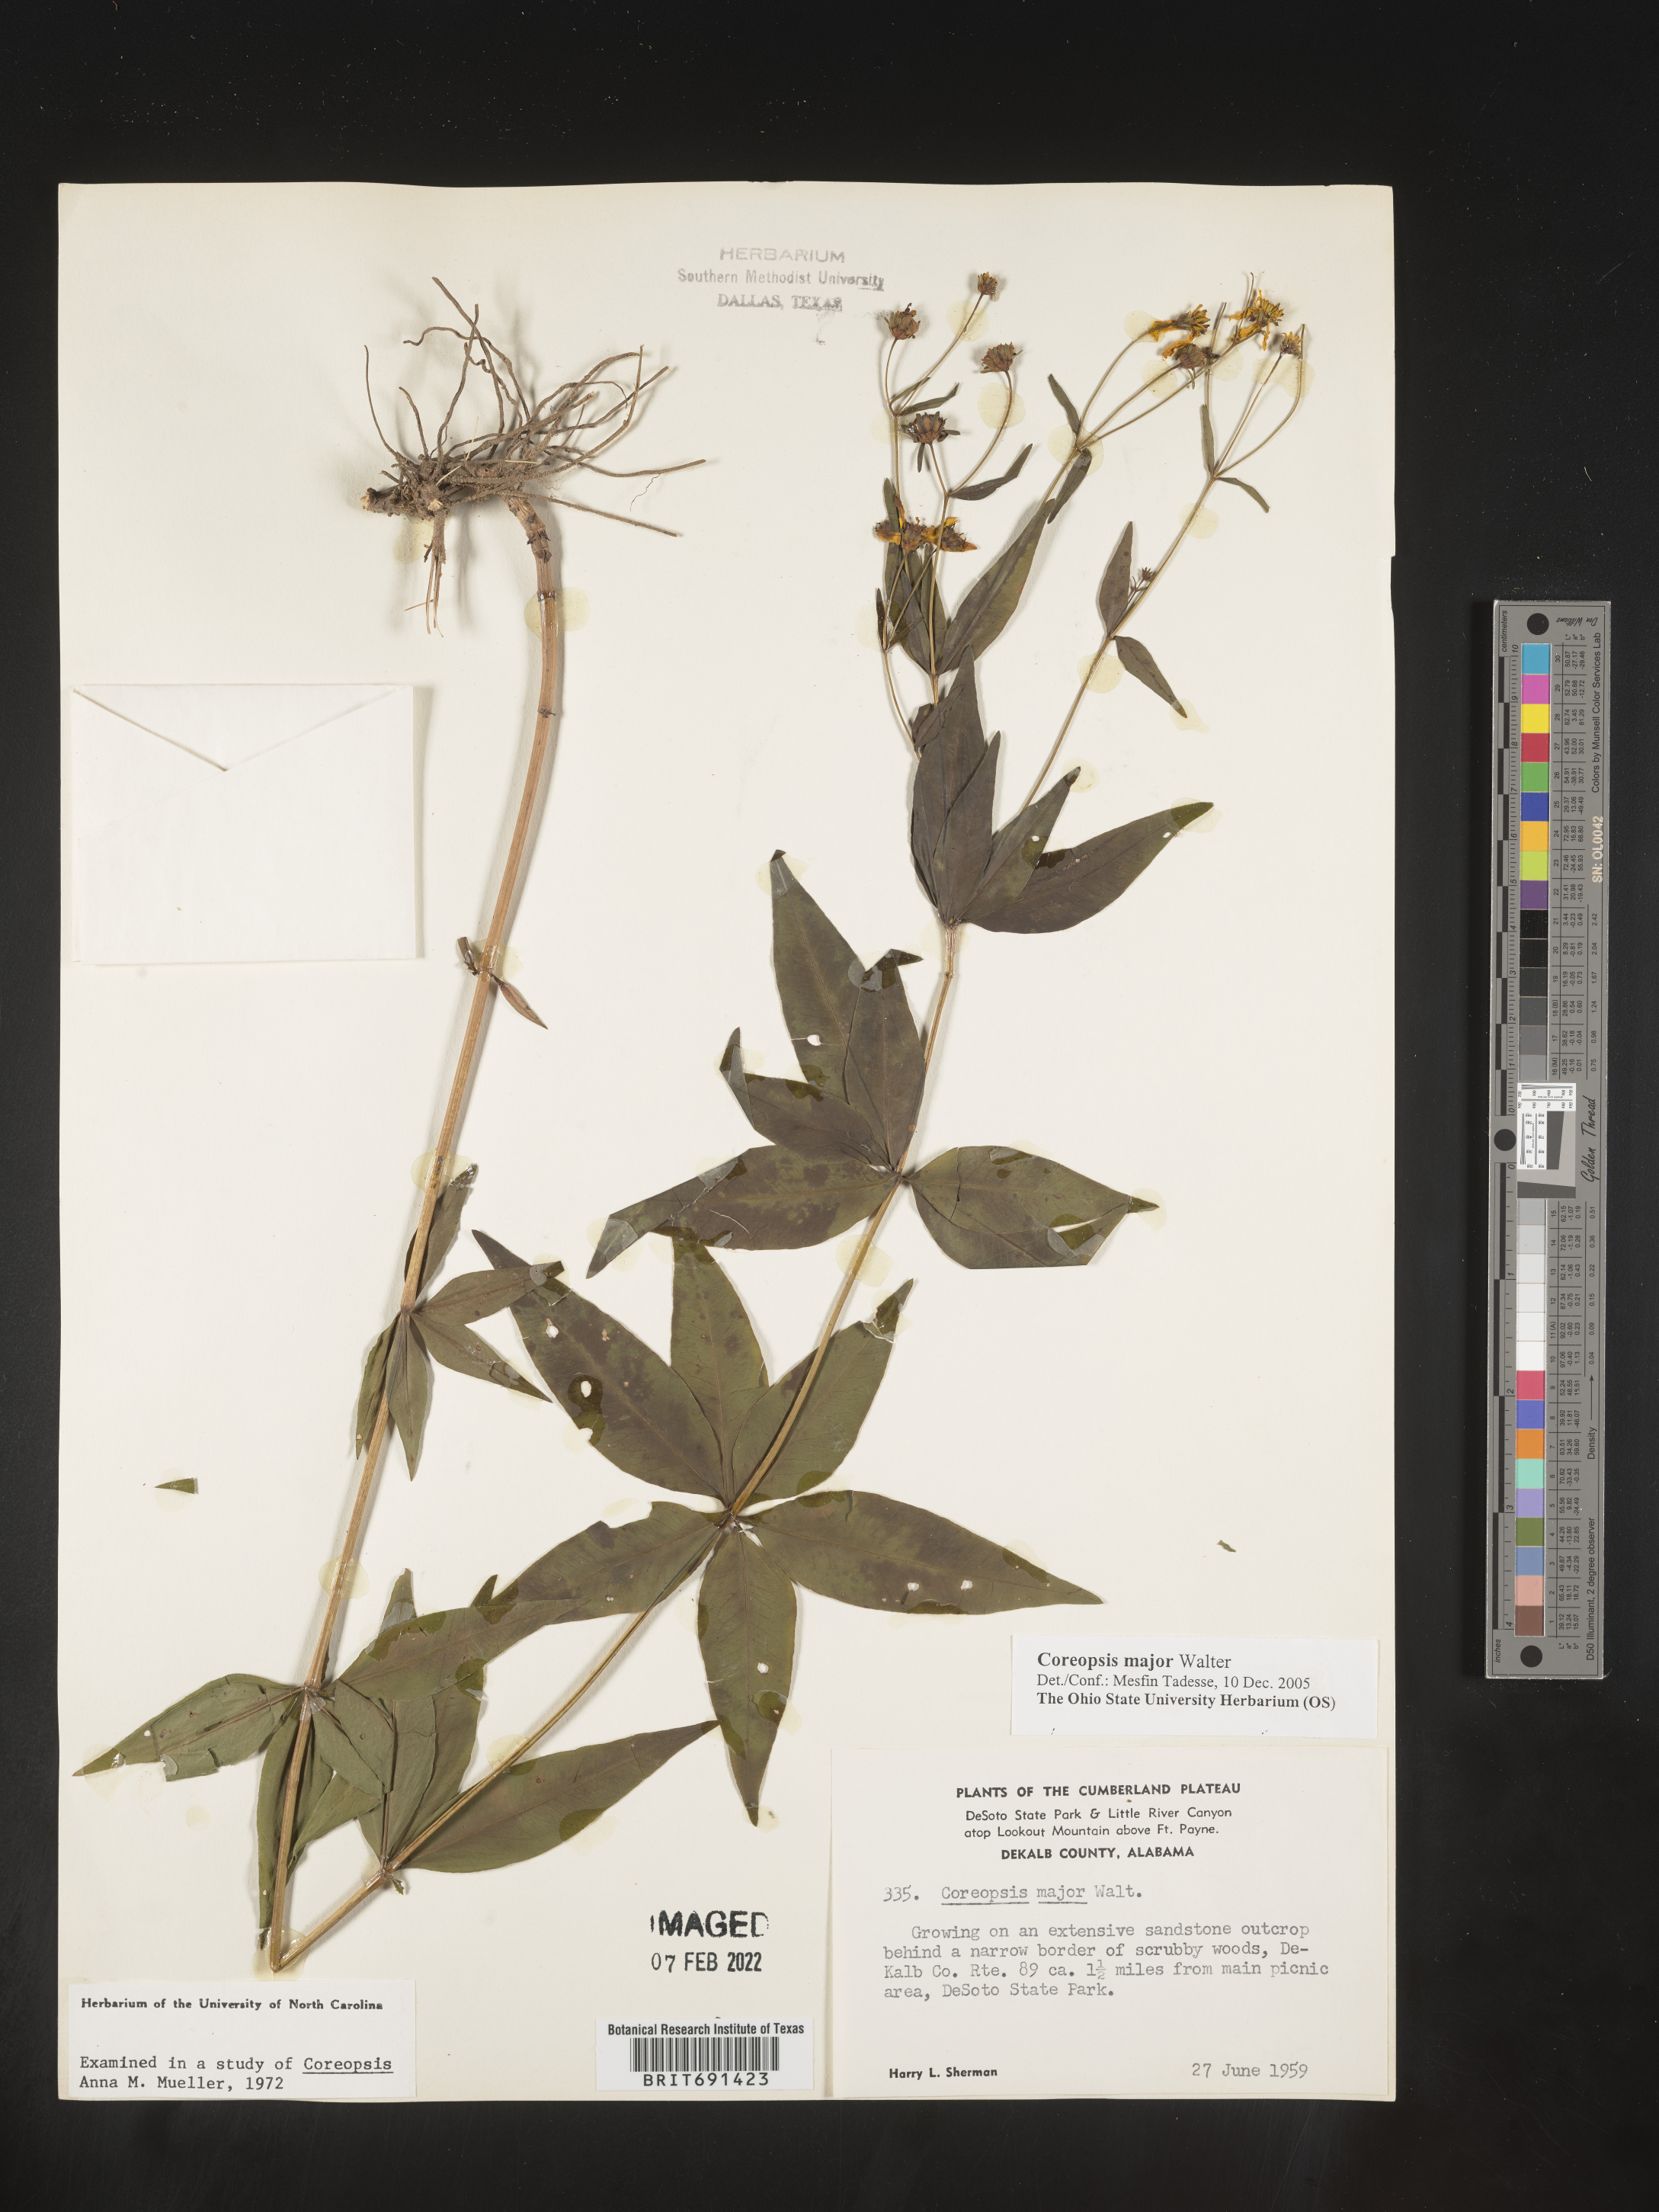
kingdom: Plantae
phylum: Tracheophyta
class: Magnoliopsida
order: Asterales
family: Asteraceae
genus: Coreopsis
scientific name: Coreopsis major
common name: Forest tickseed
